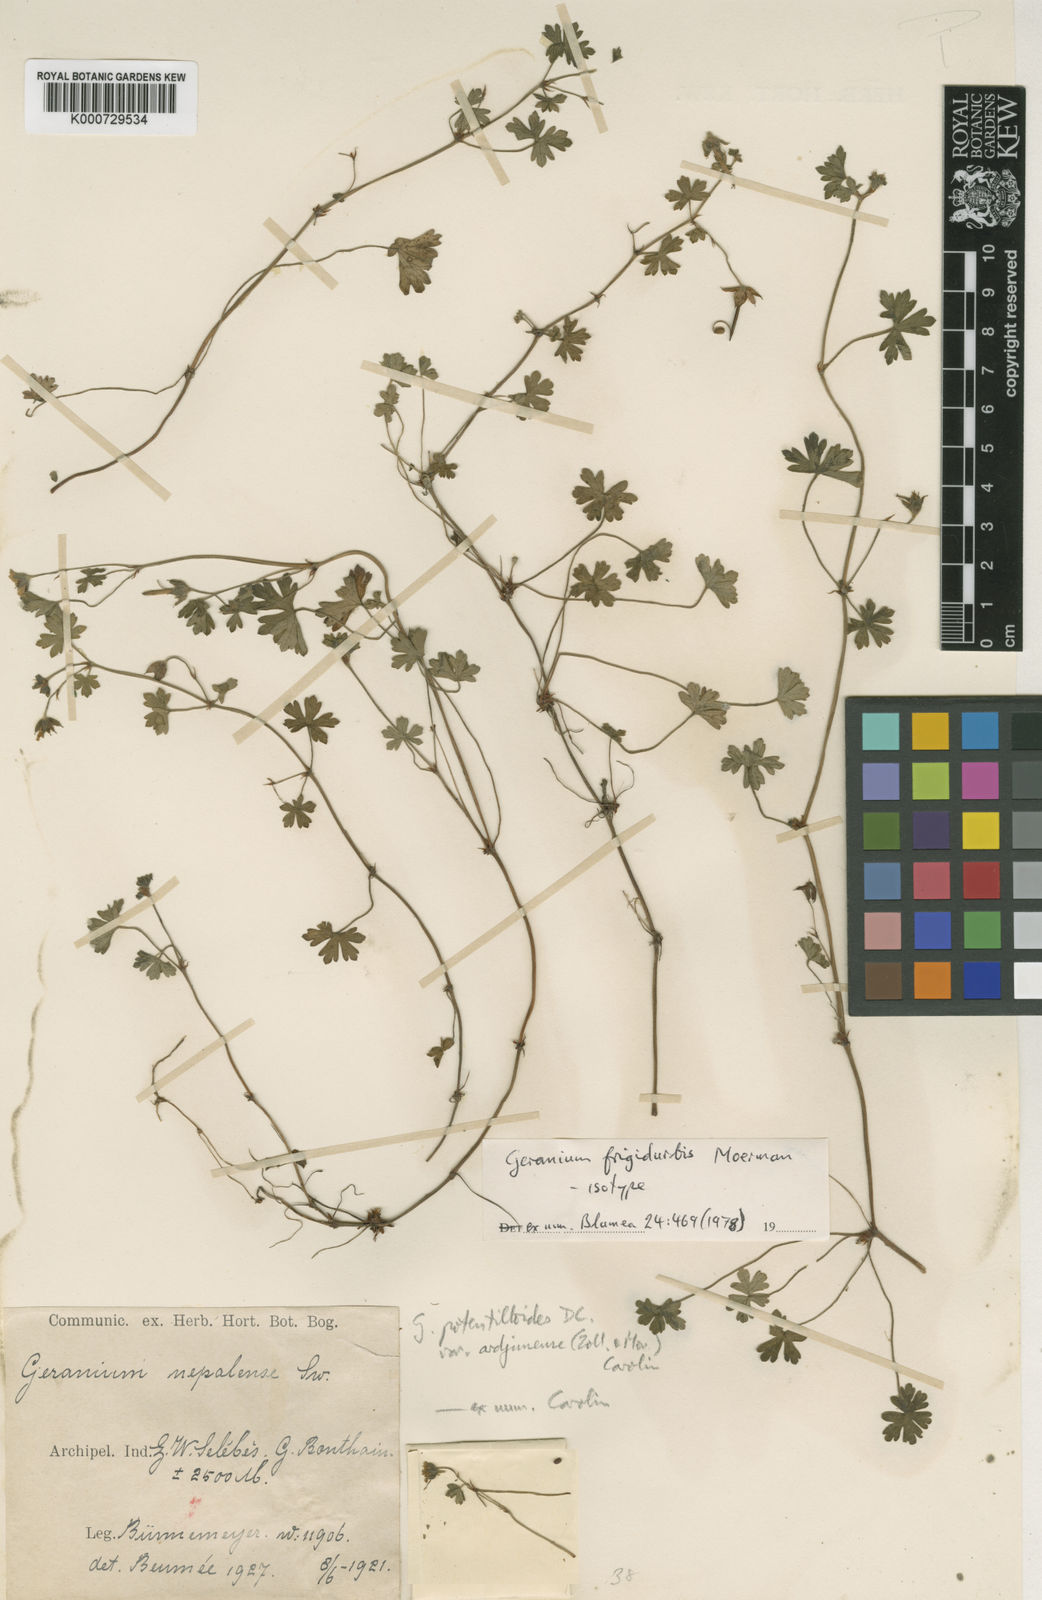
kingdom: Plantae
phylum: Tracheophyta
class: Magnoliopsida
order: Geraniales
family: Geraniaceae
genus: Geranium
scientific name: Geranium frigidurbis
